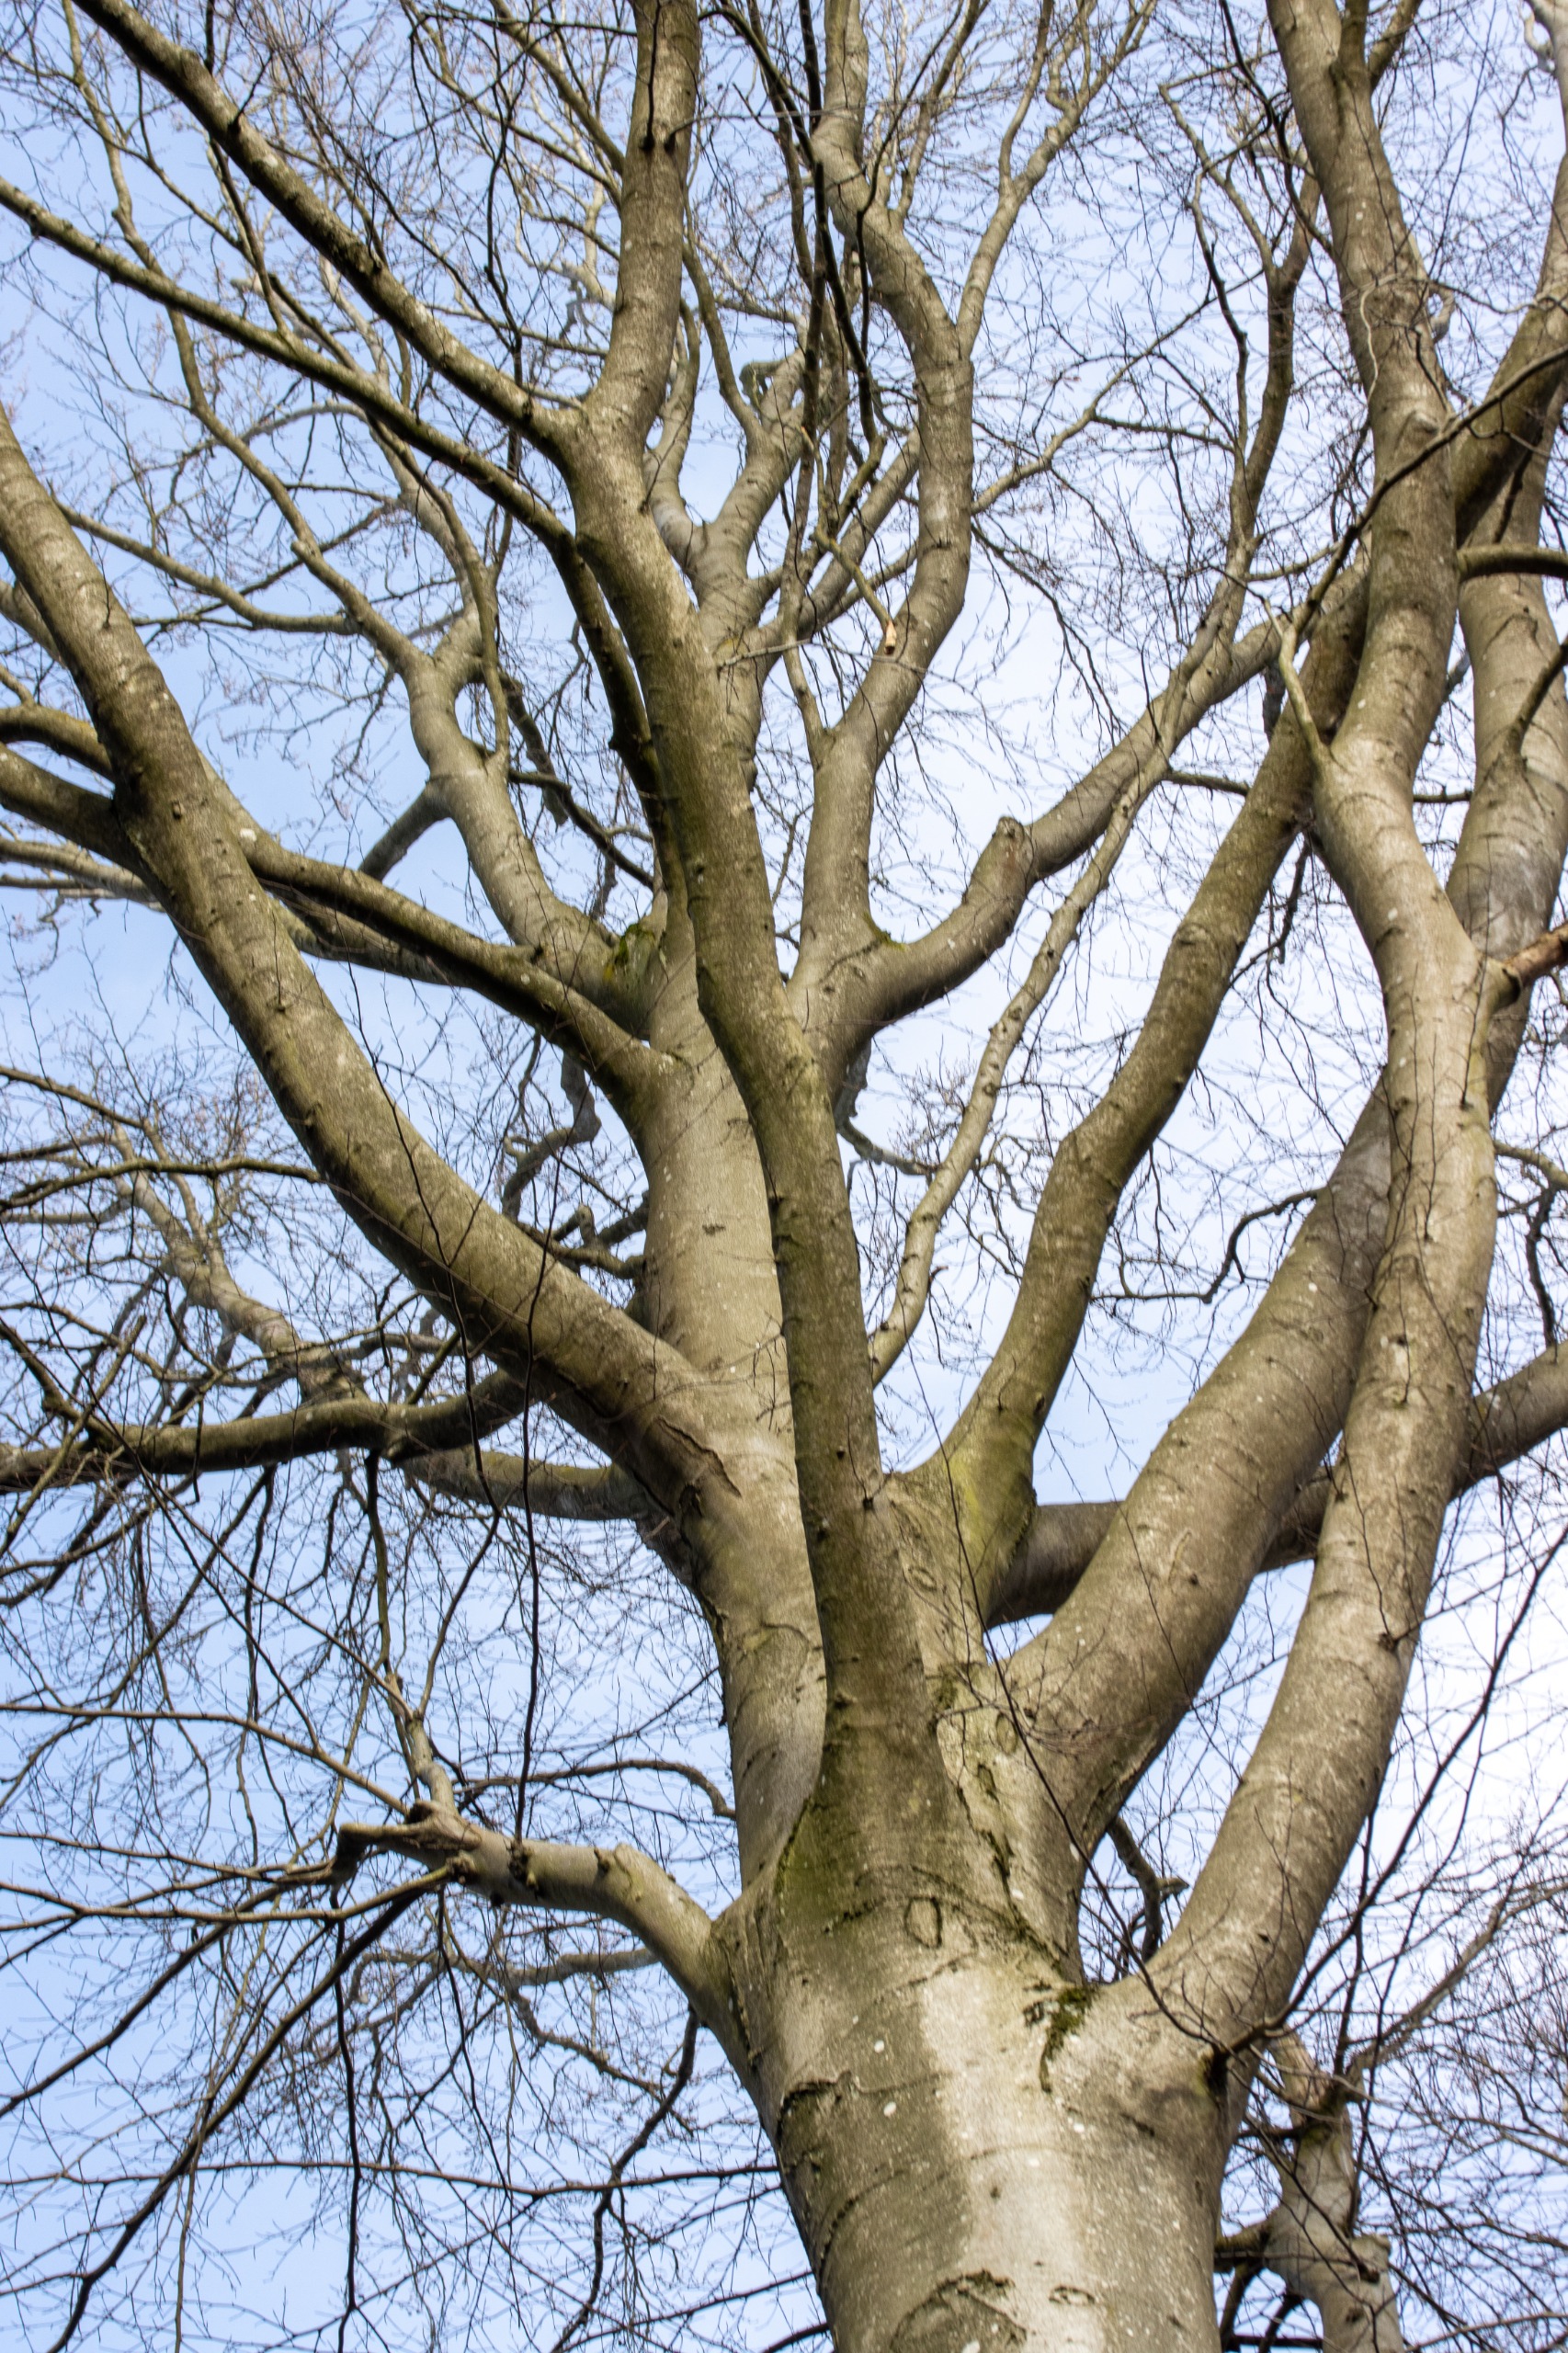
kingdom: Plantae
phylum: Tracheophyta
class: Magnoliopsida
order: Fagales
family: Fagaceae
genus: Fagus
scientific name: Fagus sylvatica
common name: Bøg
